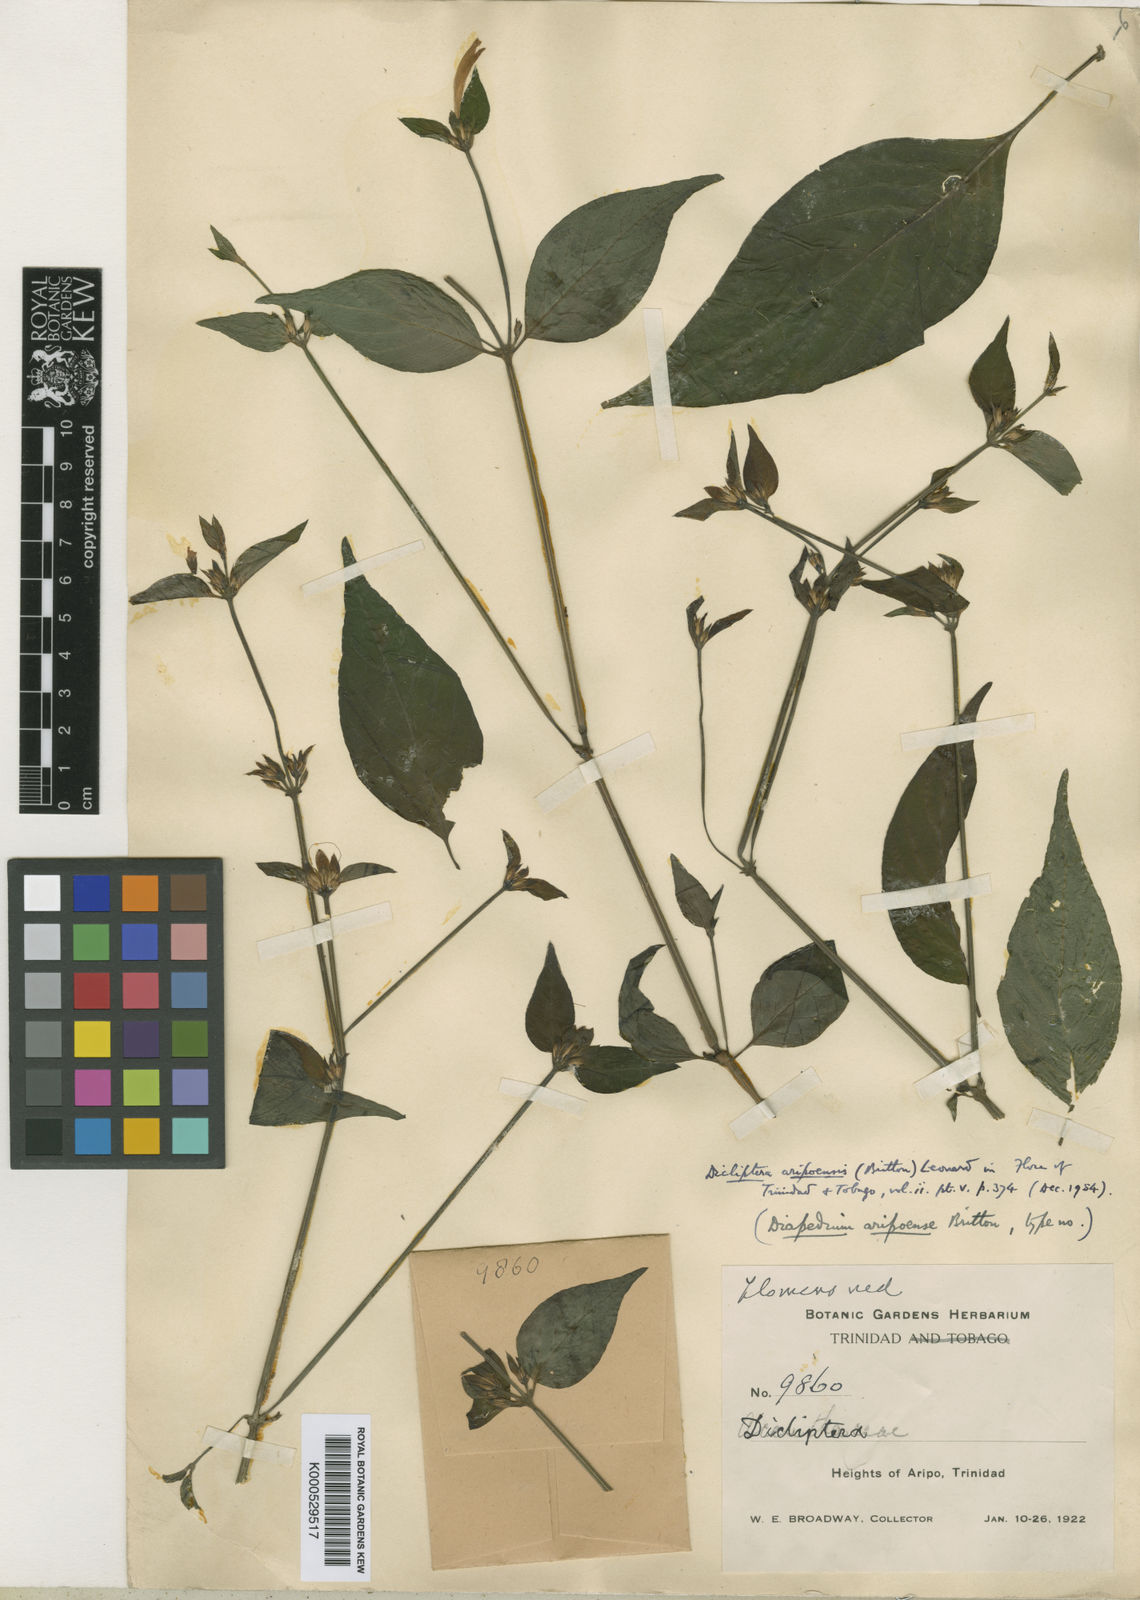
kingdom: Plantae
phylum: Tracheophyta
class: Magnoliopsida
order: Lamiales
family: Acanthaceae
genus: Dicliptera
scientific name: Dicliptera aripoensis
